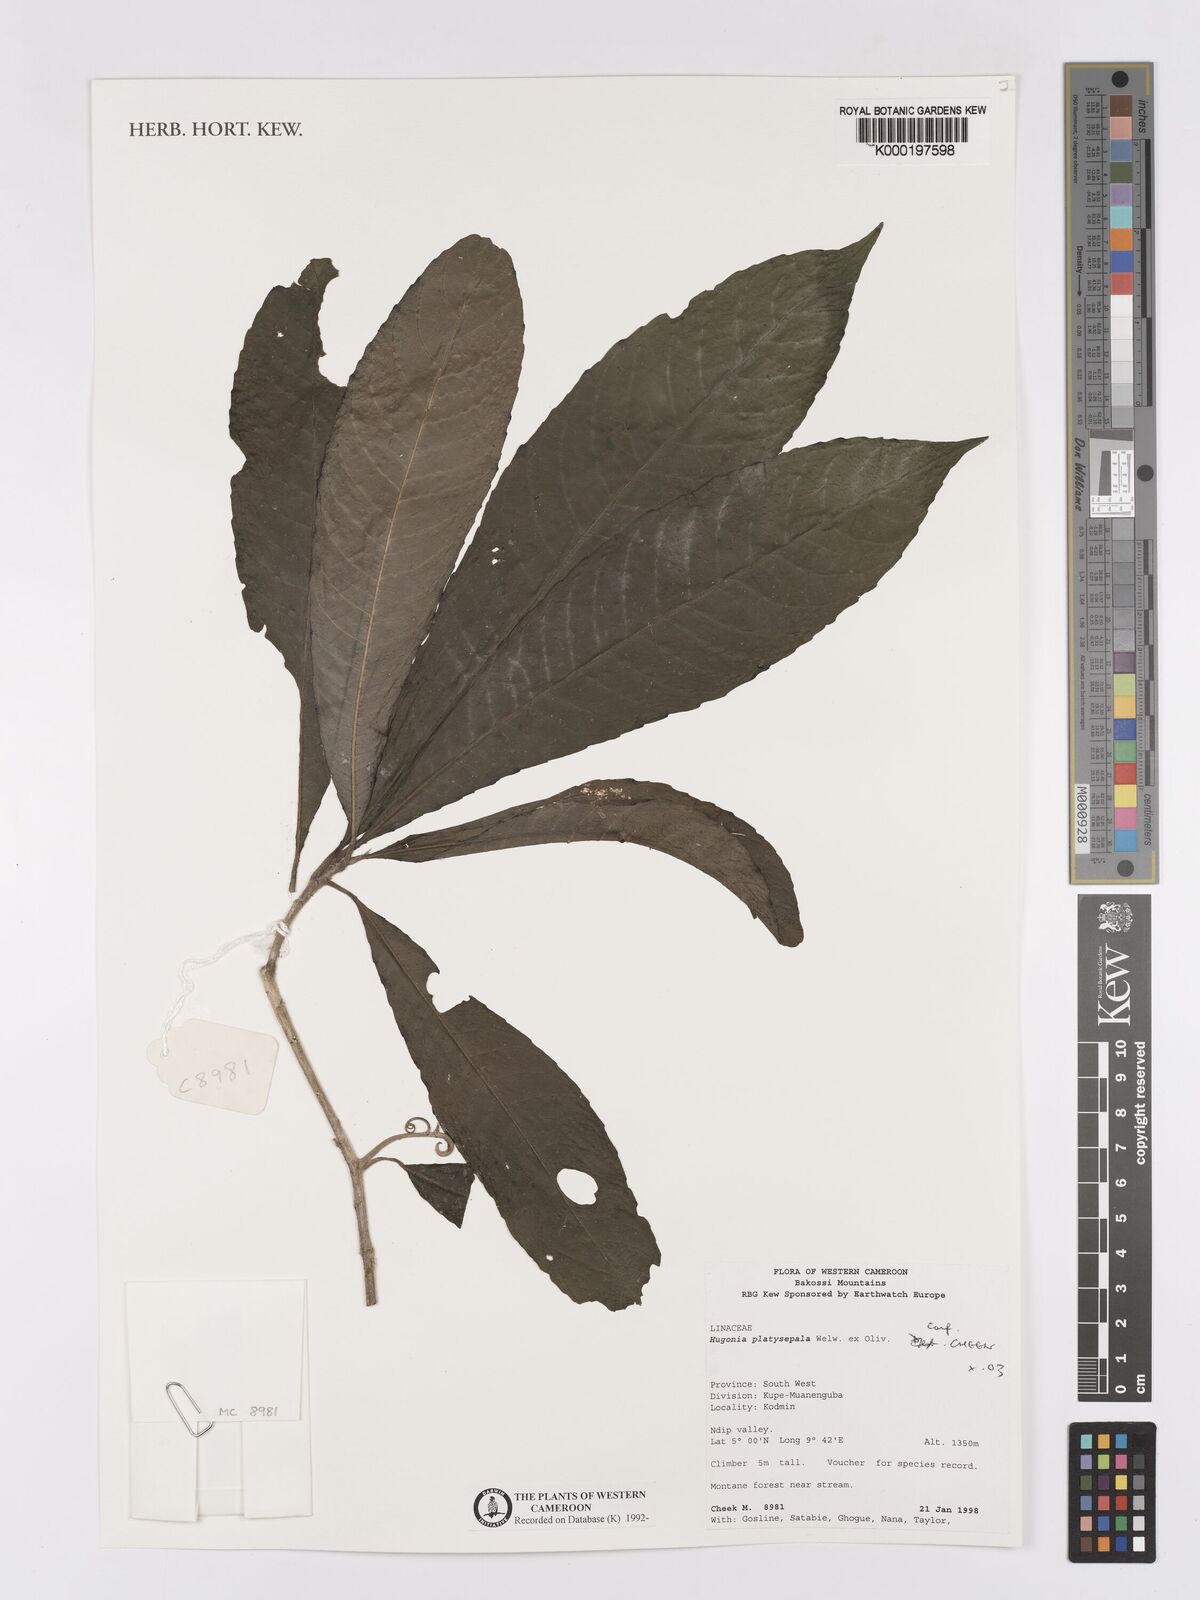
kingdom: Plantae
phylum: Tracheophyta
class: Magnoliopsida
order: Malpighiales
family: Linaceae
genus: Hugonia
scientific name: Hugonia platysepala
